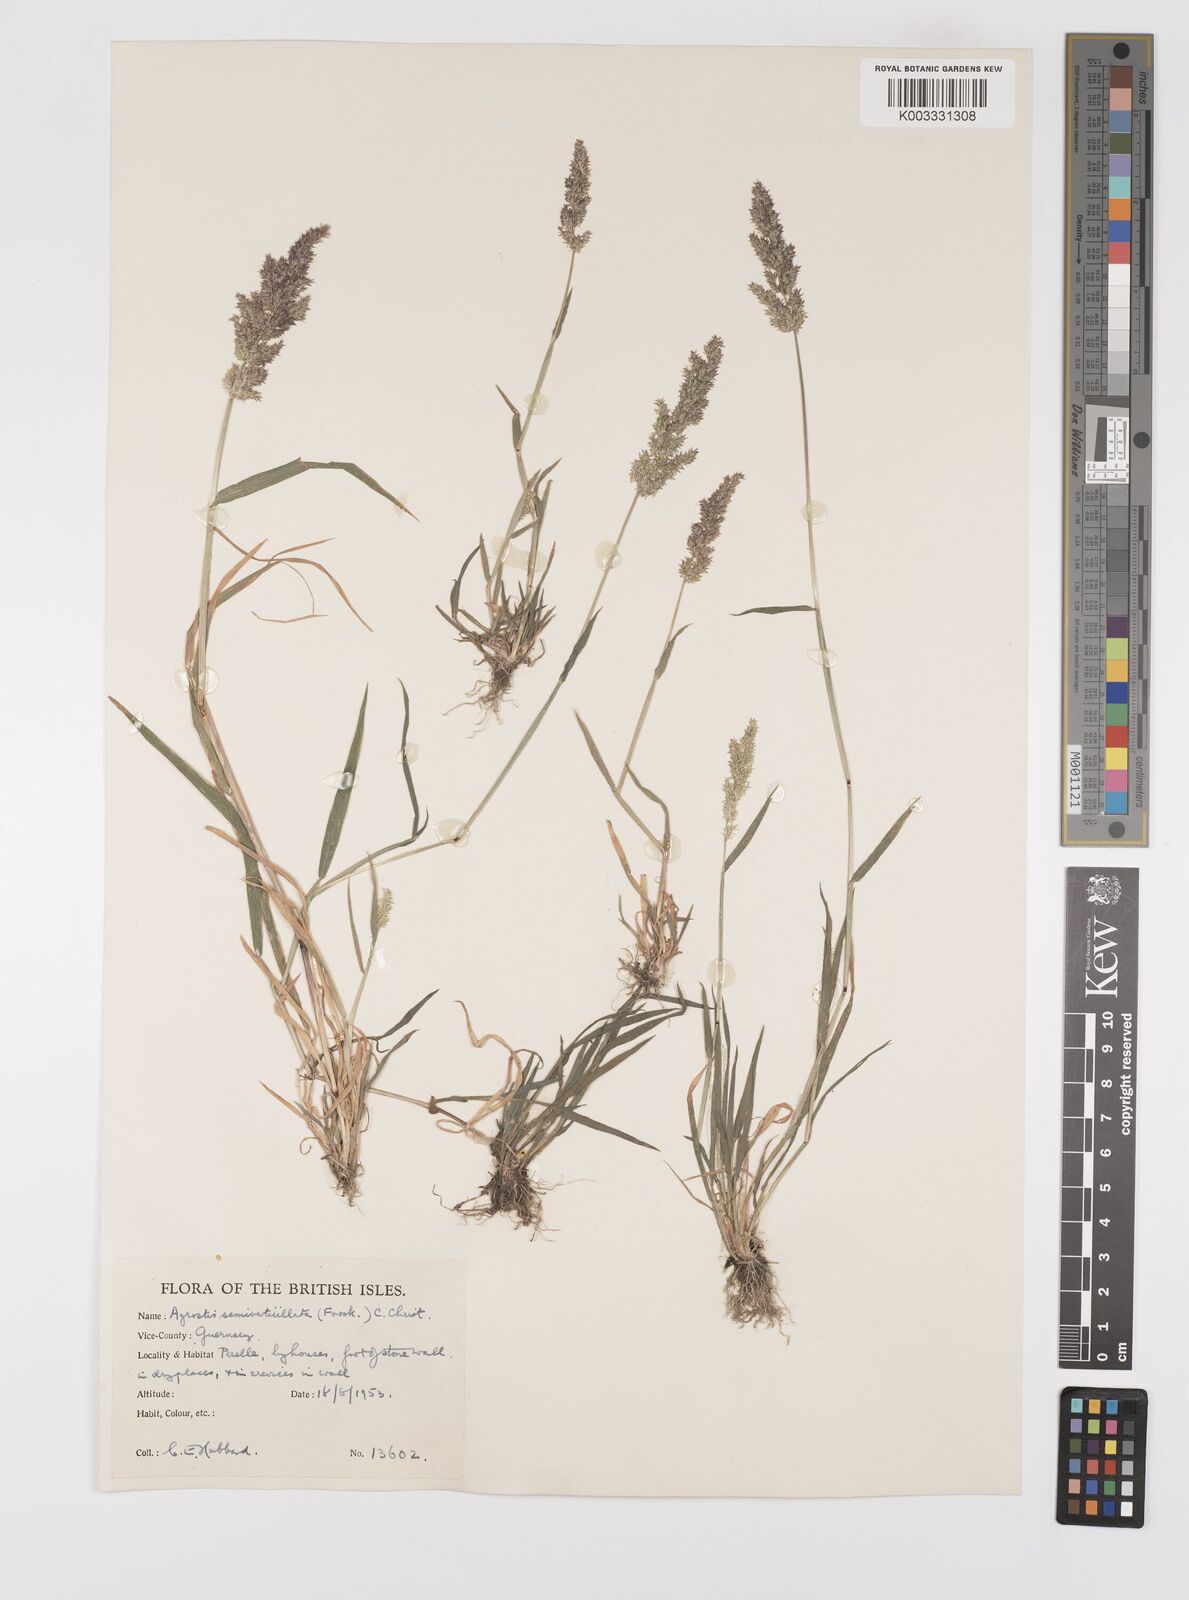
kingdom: Plantae
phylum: Tracheophyta
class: Liliopsida
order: Poales
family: Poaceae
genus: Polypogon
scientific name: Polypogon viridis
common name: Water bent
